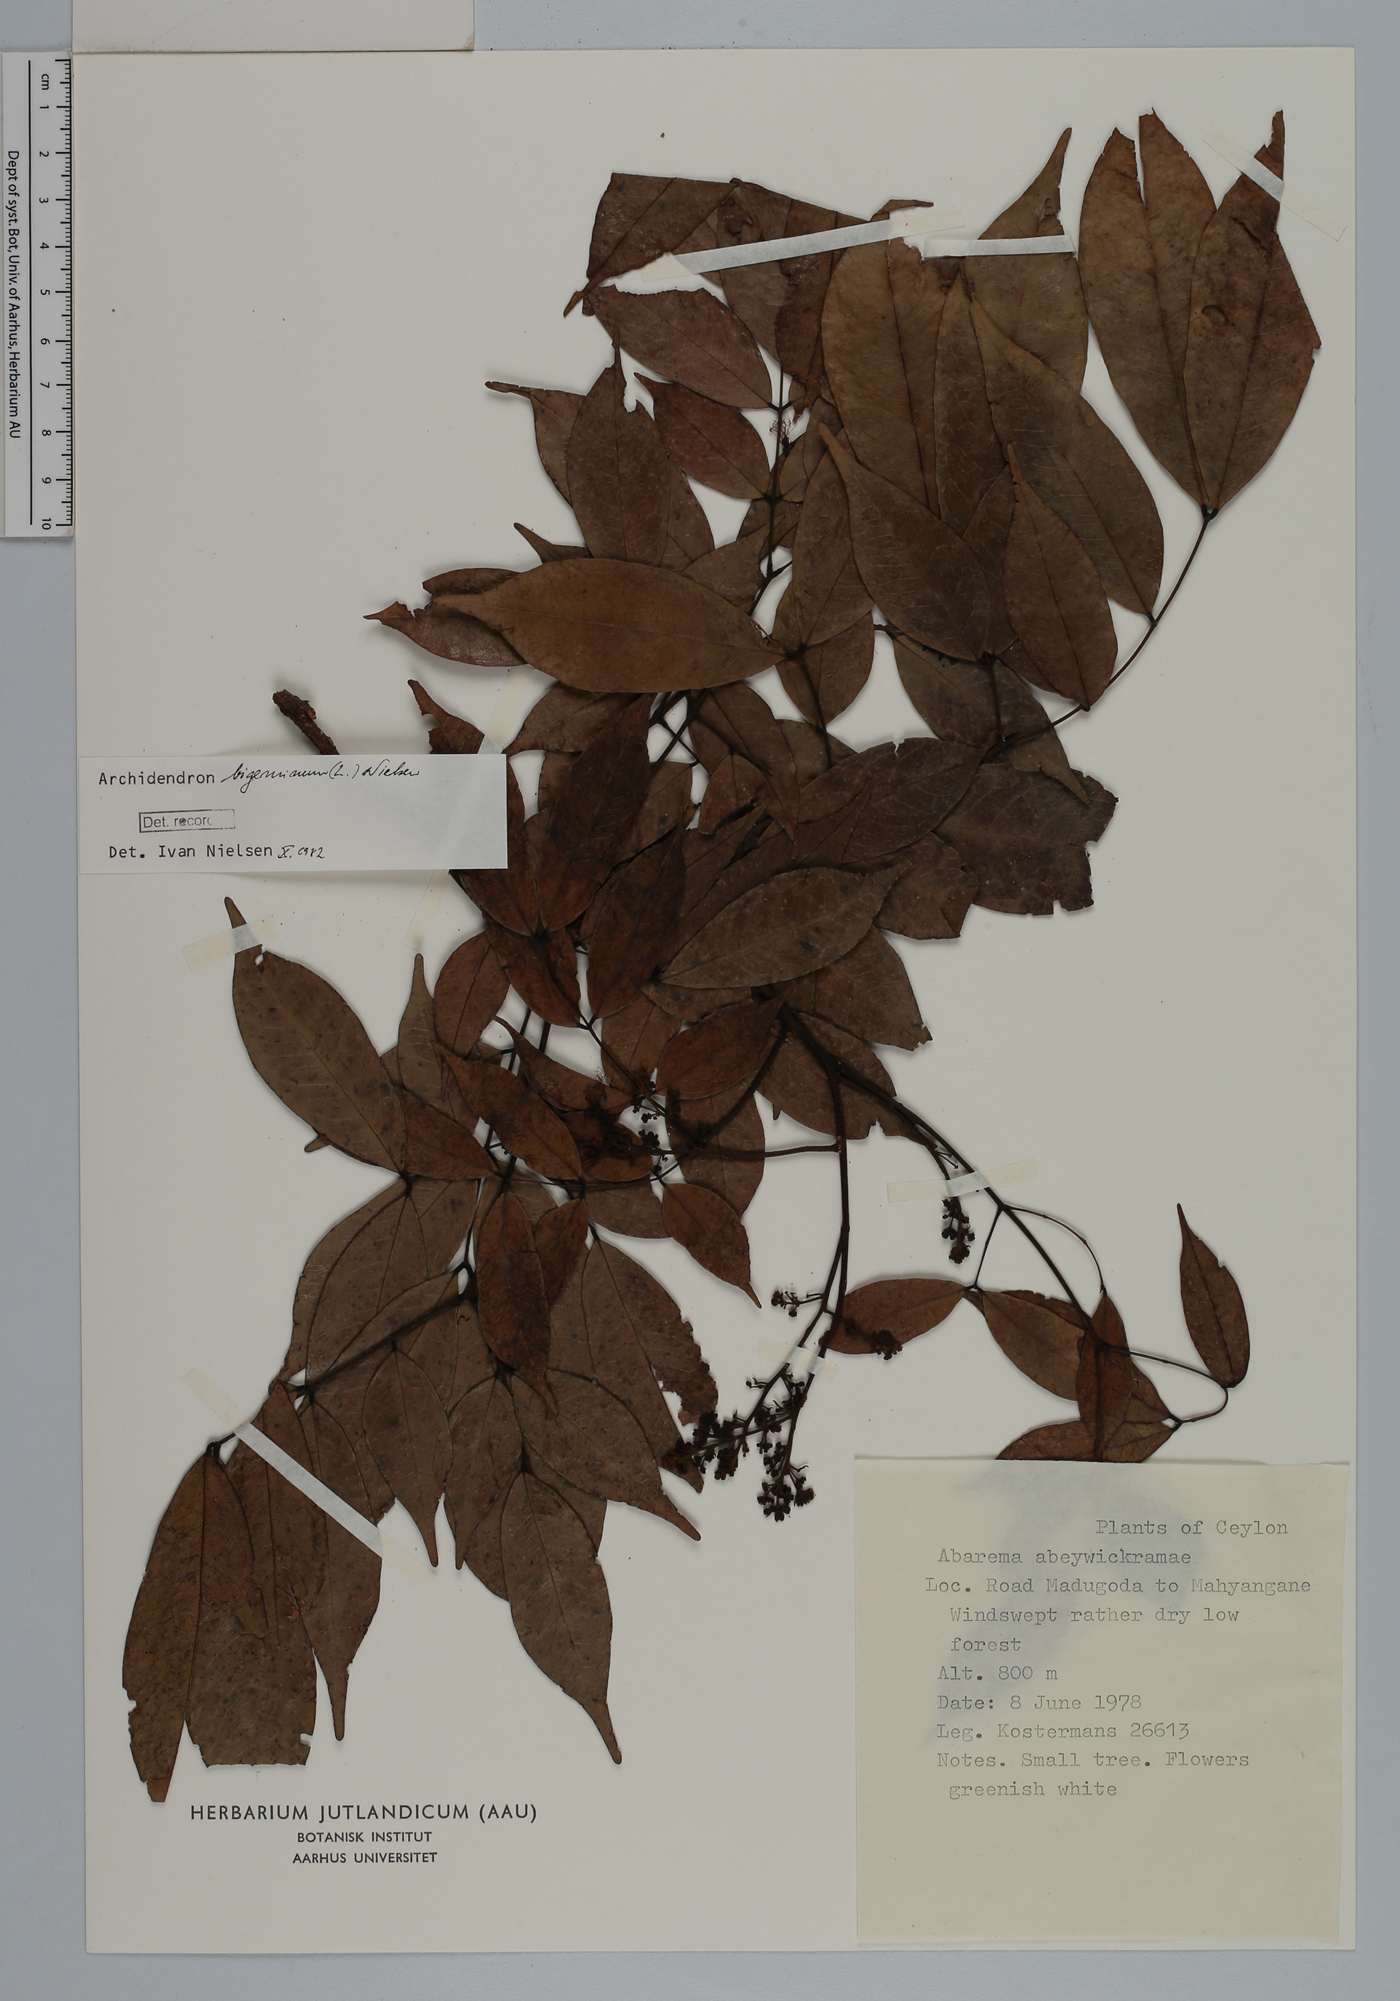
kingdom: Plantae
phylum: Tracheophyta
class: Magnoliopsida
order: Fabales
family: Fabaceae
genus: Archidendron
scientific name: Archidendron bigeminum
